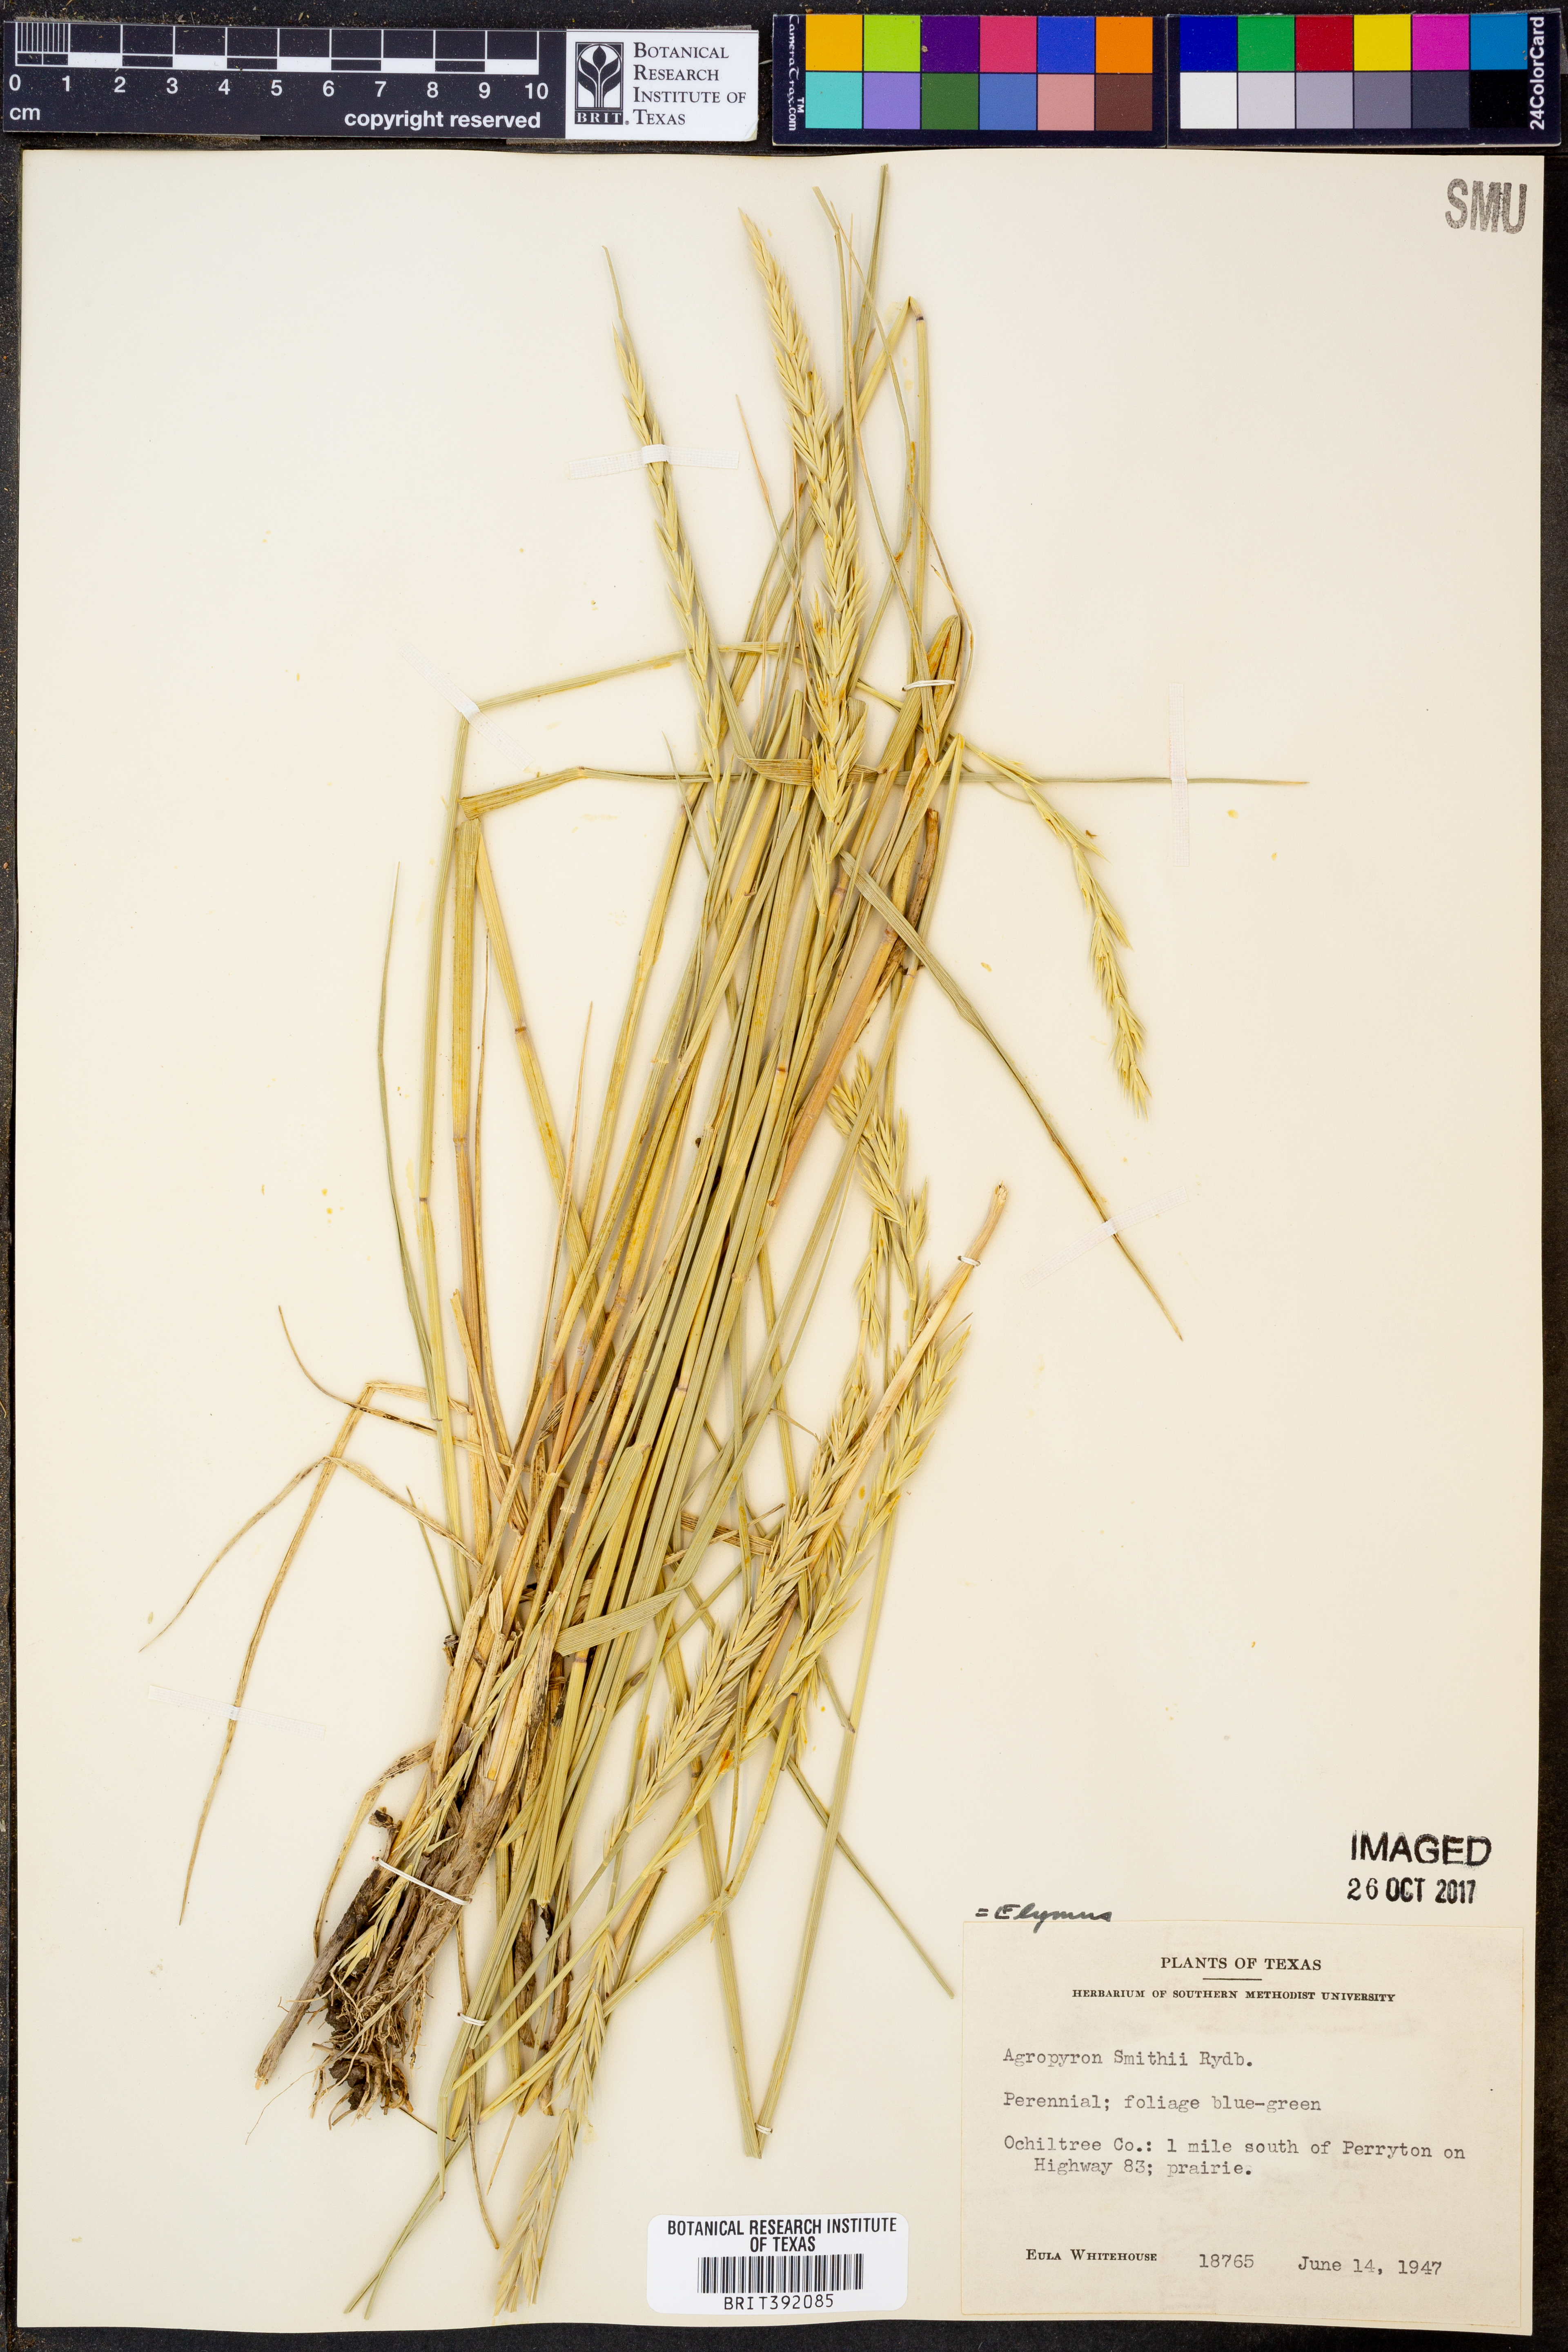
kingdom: Plantae
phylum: Tracheophyta
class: Liliopsida
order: Poales
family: Poaceae
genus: Elymus
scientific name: Elymus smithii
